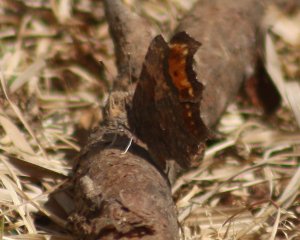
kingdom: Animalia
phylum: Arthropoda
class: Insecta
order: Lepidoptera
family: Nymphalidae
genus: Polygonia
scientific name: Polygonia progne
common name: Gray Comma
